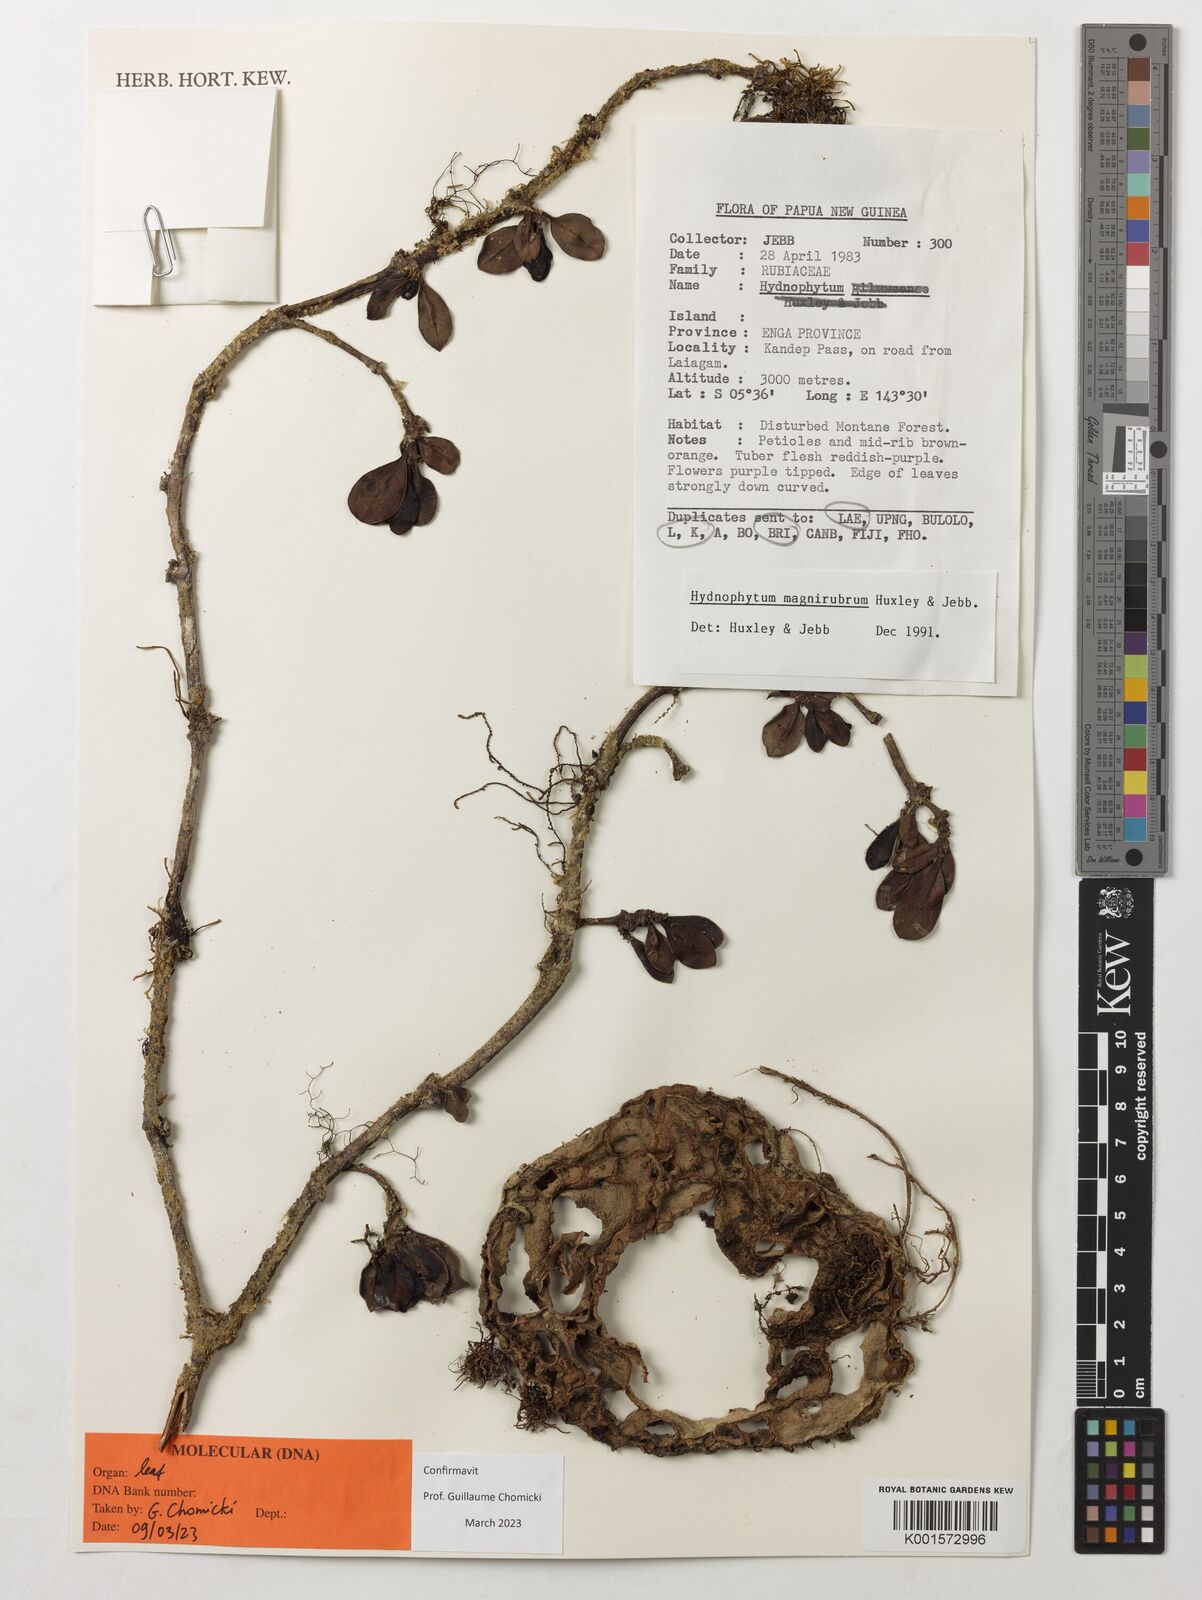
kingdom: Plantae
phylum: Tracheophyta
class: Magnoliopsida
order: Gentianales
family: Rubiaceae
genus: Hydnophytum
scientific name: Hydnophytum magnirubrum
